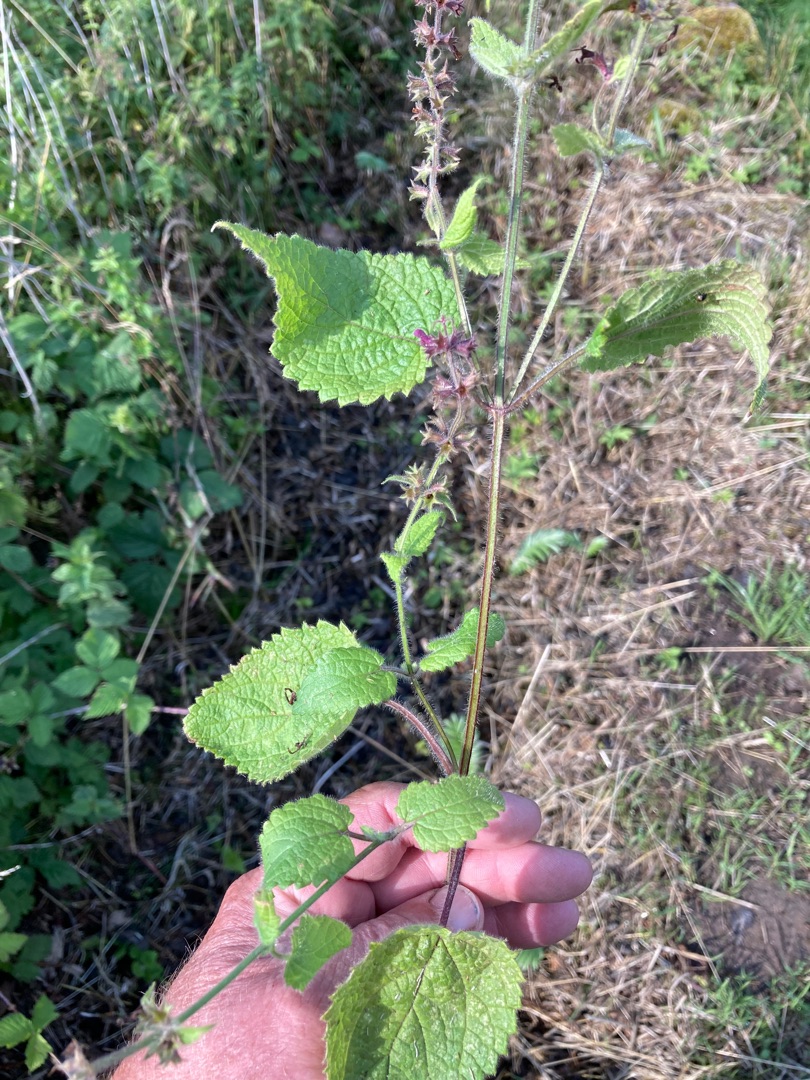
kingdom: Plantae
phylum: Tracheophyta
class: Magnoliopsida
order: Lamiales
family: Lamiaceae
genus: Stachys
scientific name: Stachys sylvatica
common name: Skov-galtetand
